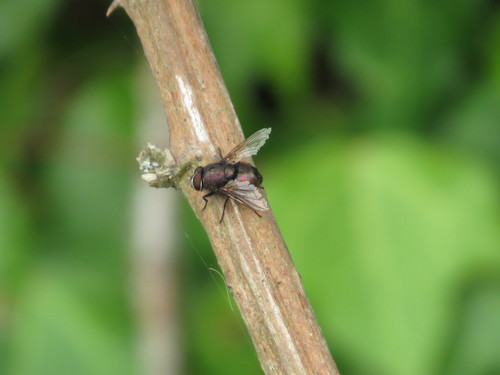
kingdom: Animalia
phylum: Arthropoda
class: Insecta
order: Diptera
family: Calliphoridae
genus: Lucilia
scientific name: Lucilia
